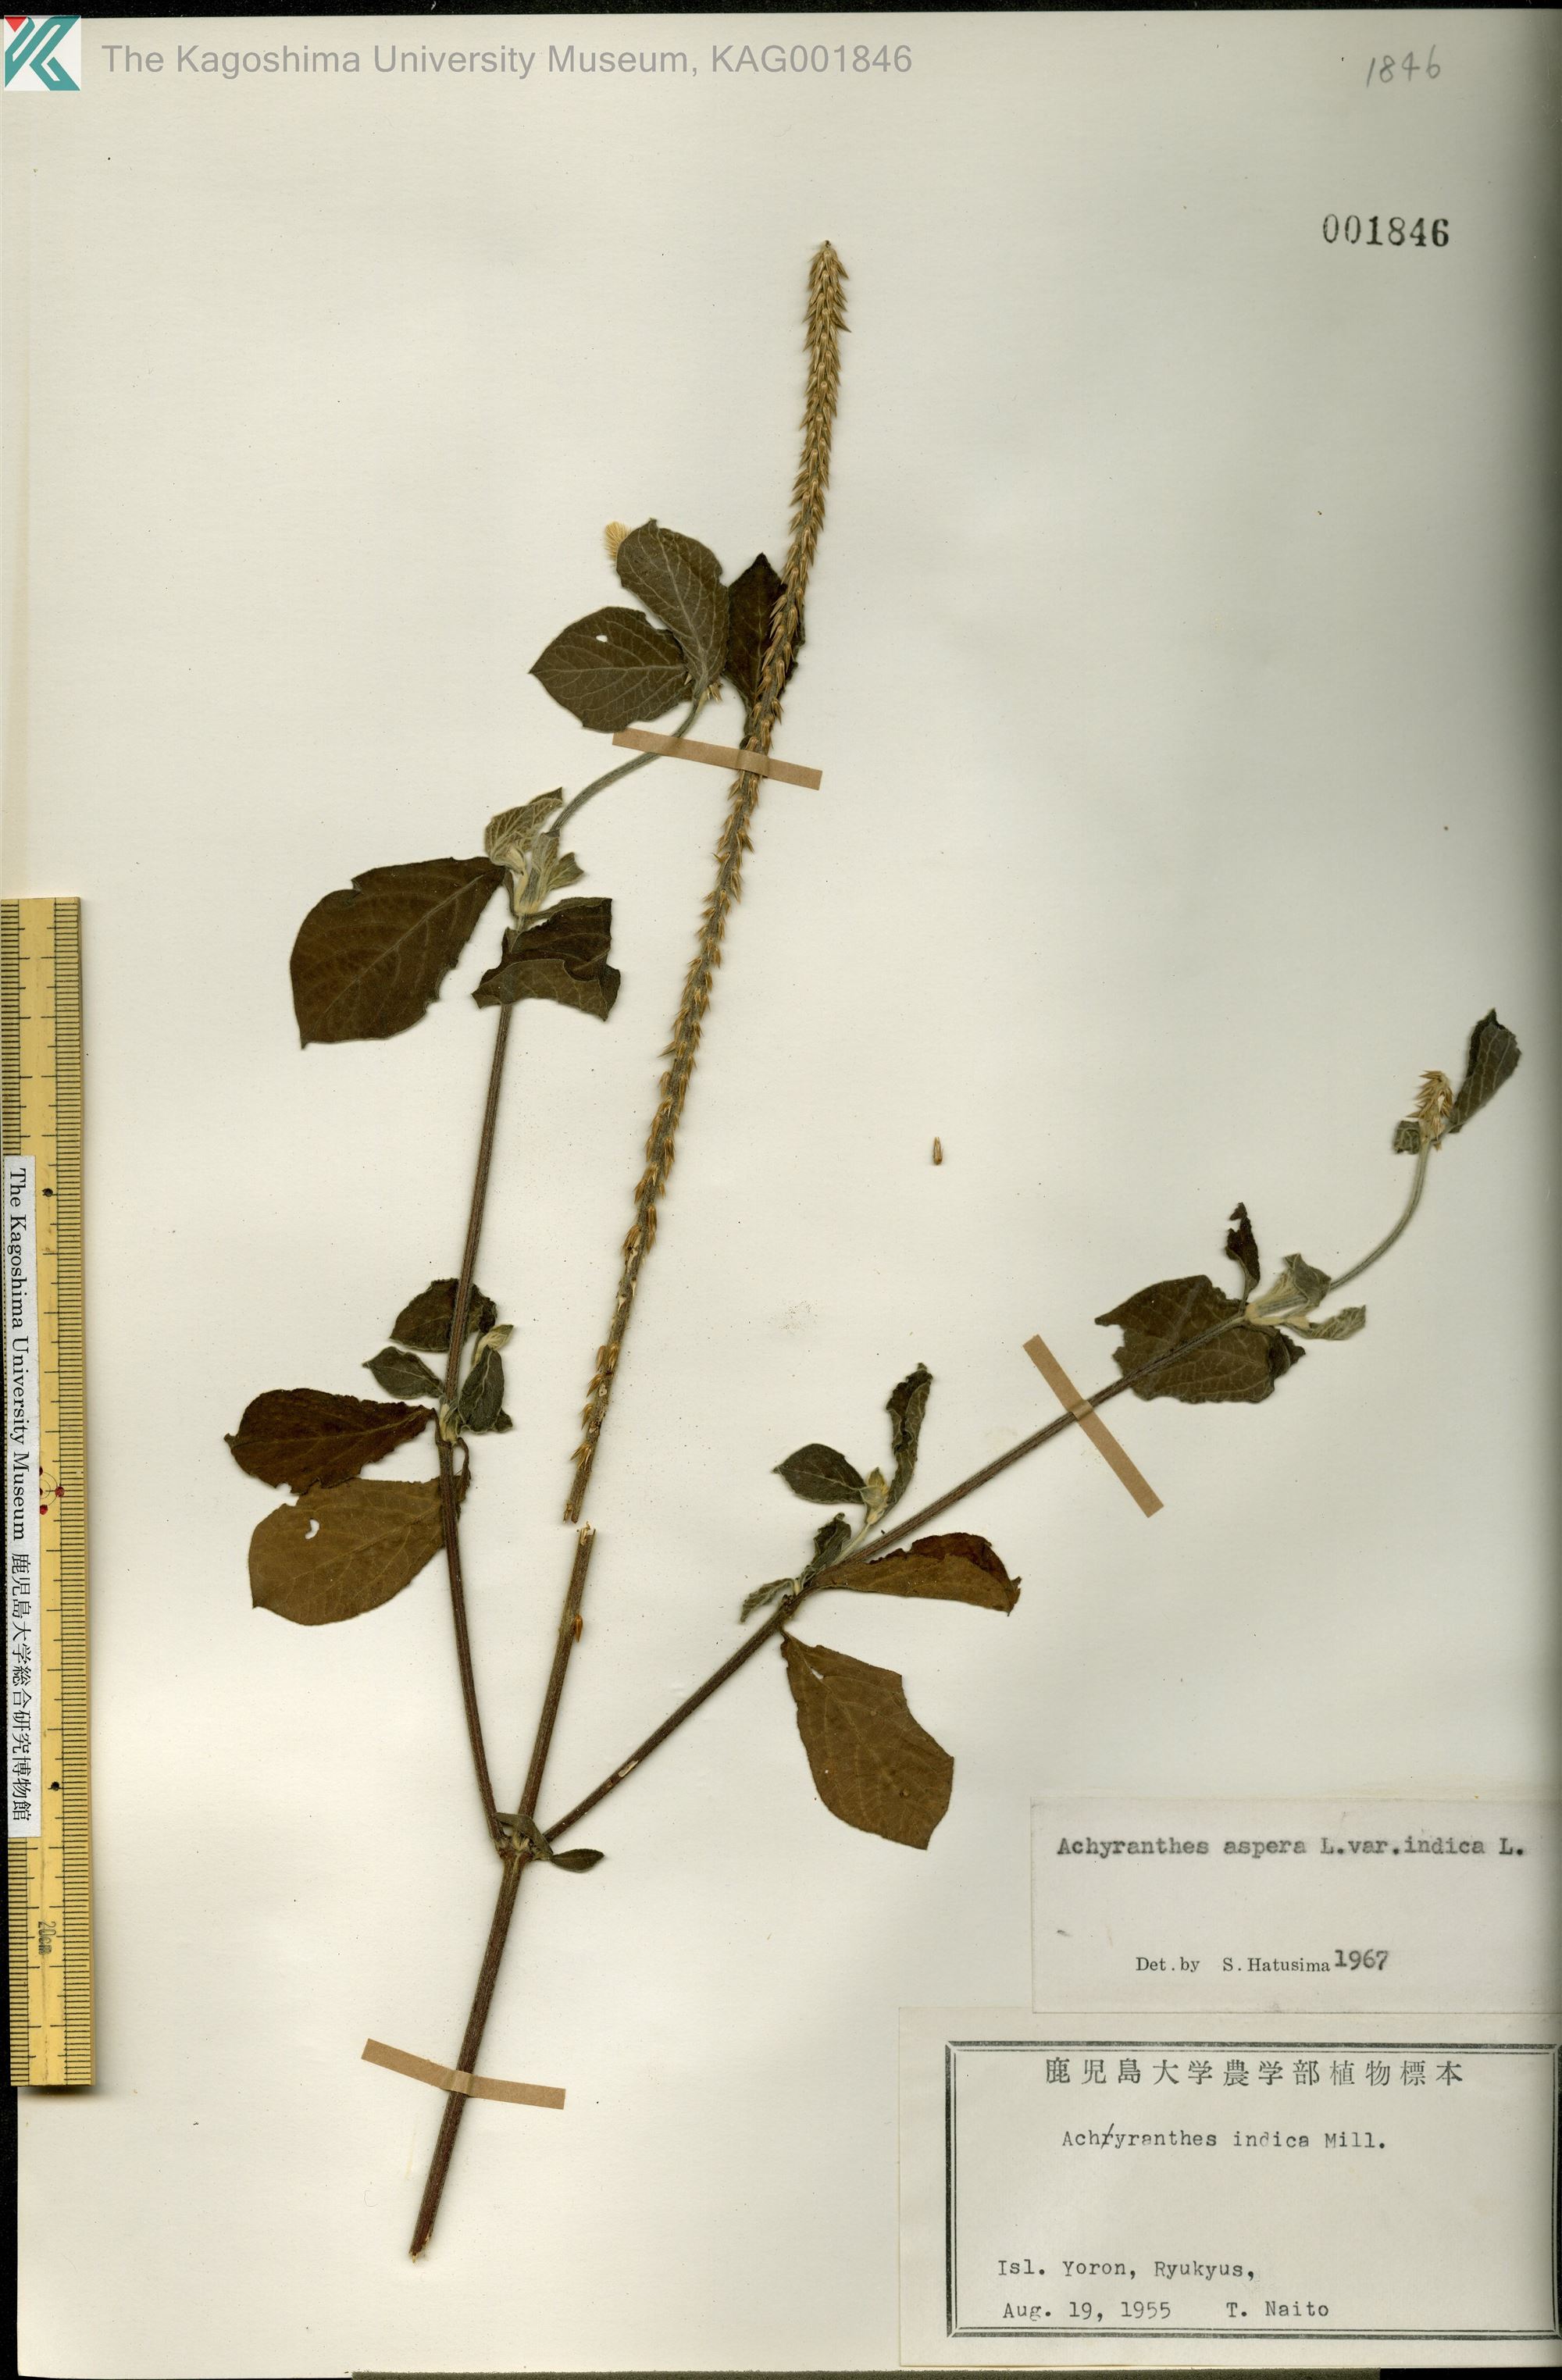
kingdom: Plantae
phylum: Tracheophyta
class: Magnoliopsida
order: Caryophyllales
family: Amaranthaceae
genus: Achyranthes
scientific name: Achyranthes aspera
